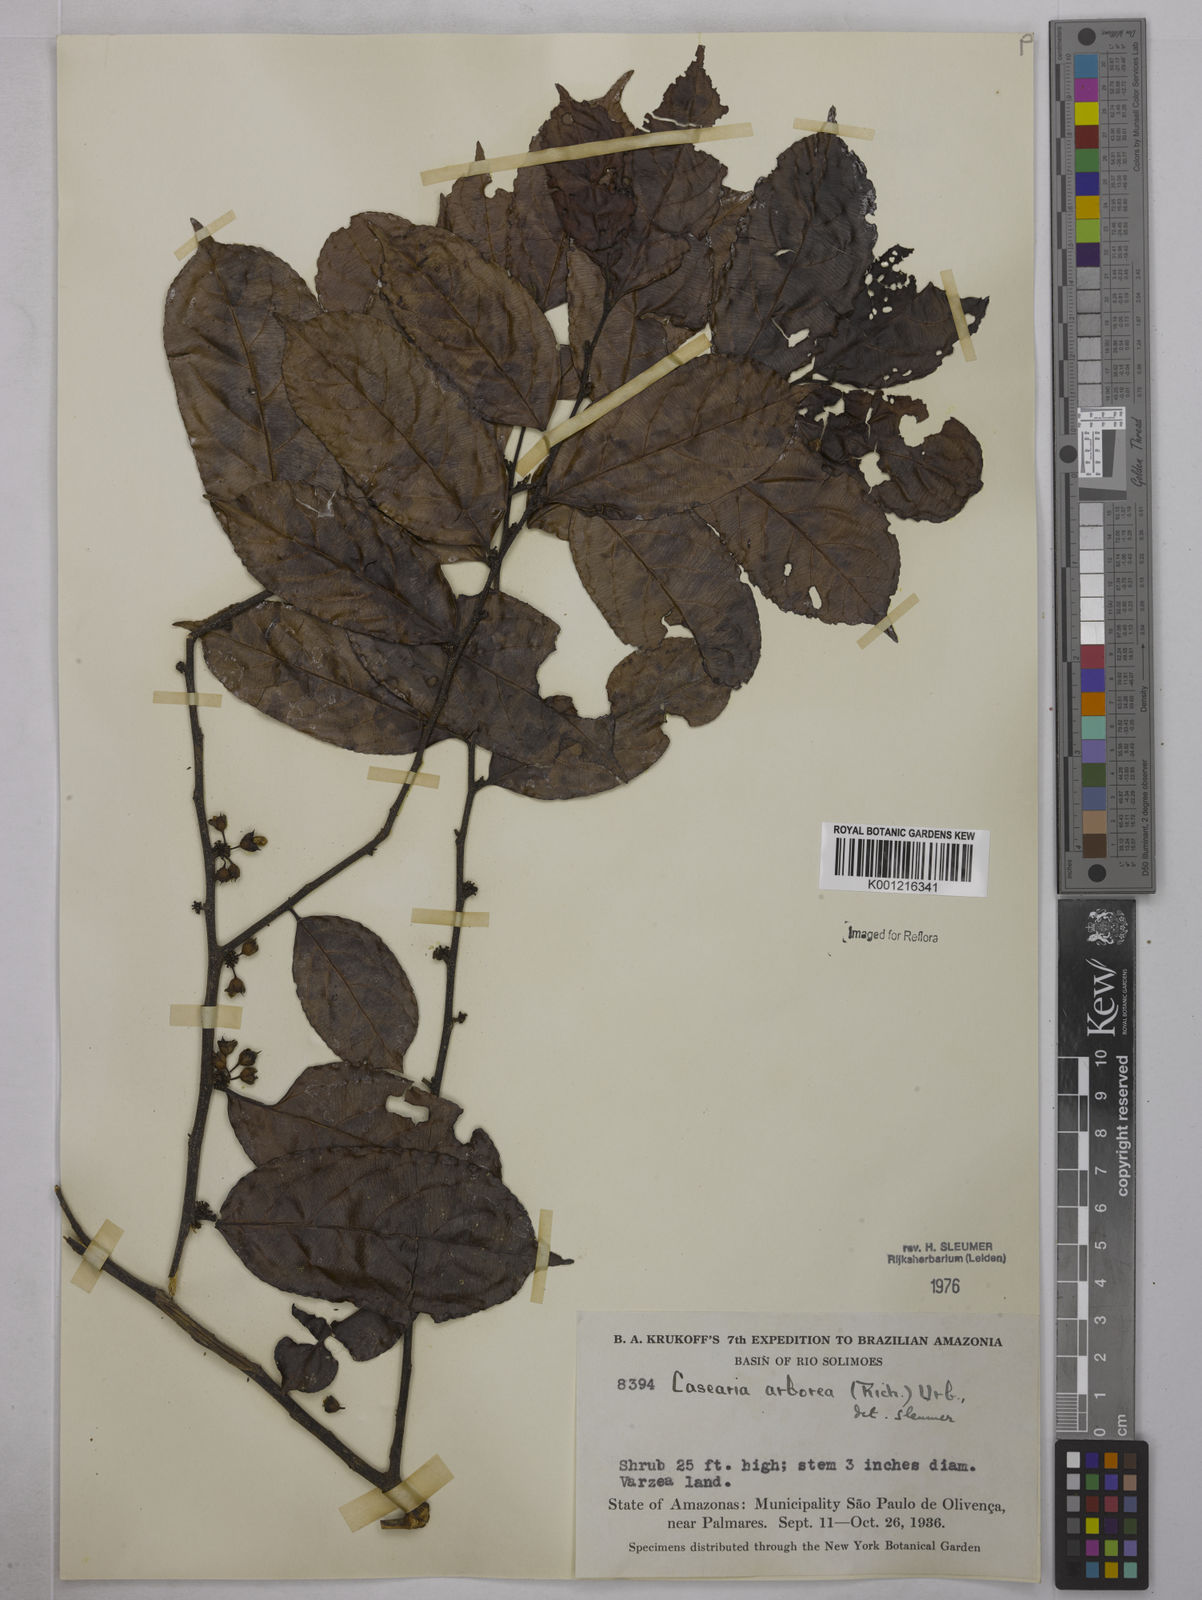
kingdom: Plantae
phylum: Tracheophyta
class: Magnoliopsida
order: Malpighiales
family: Salicaceae
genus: Casearia
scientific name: Casearia arborea
